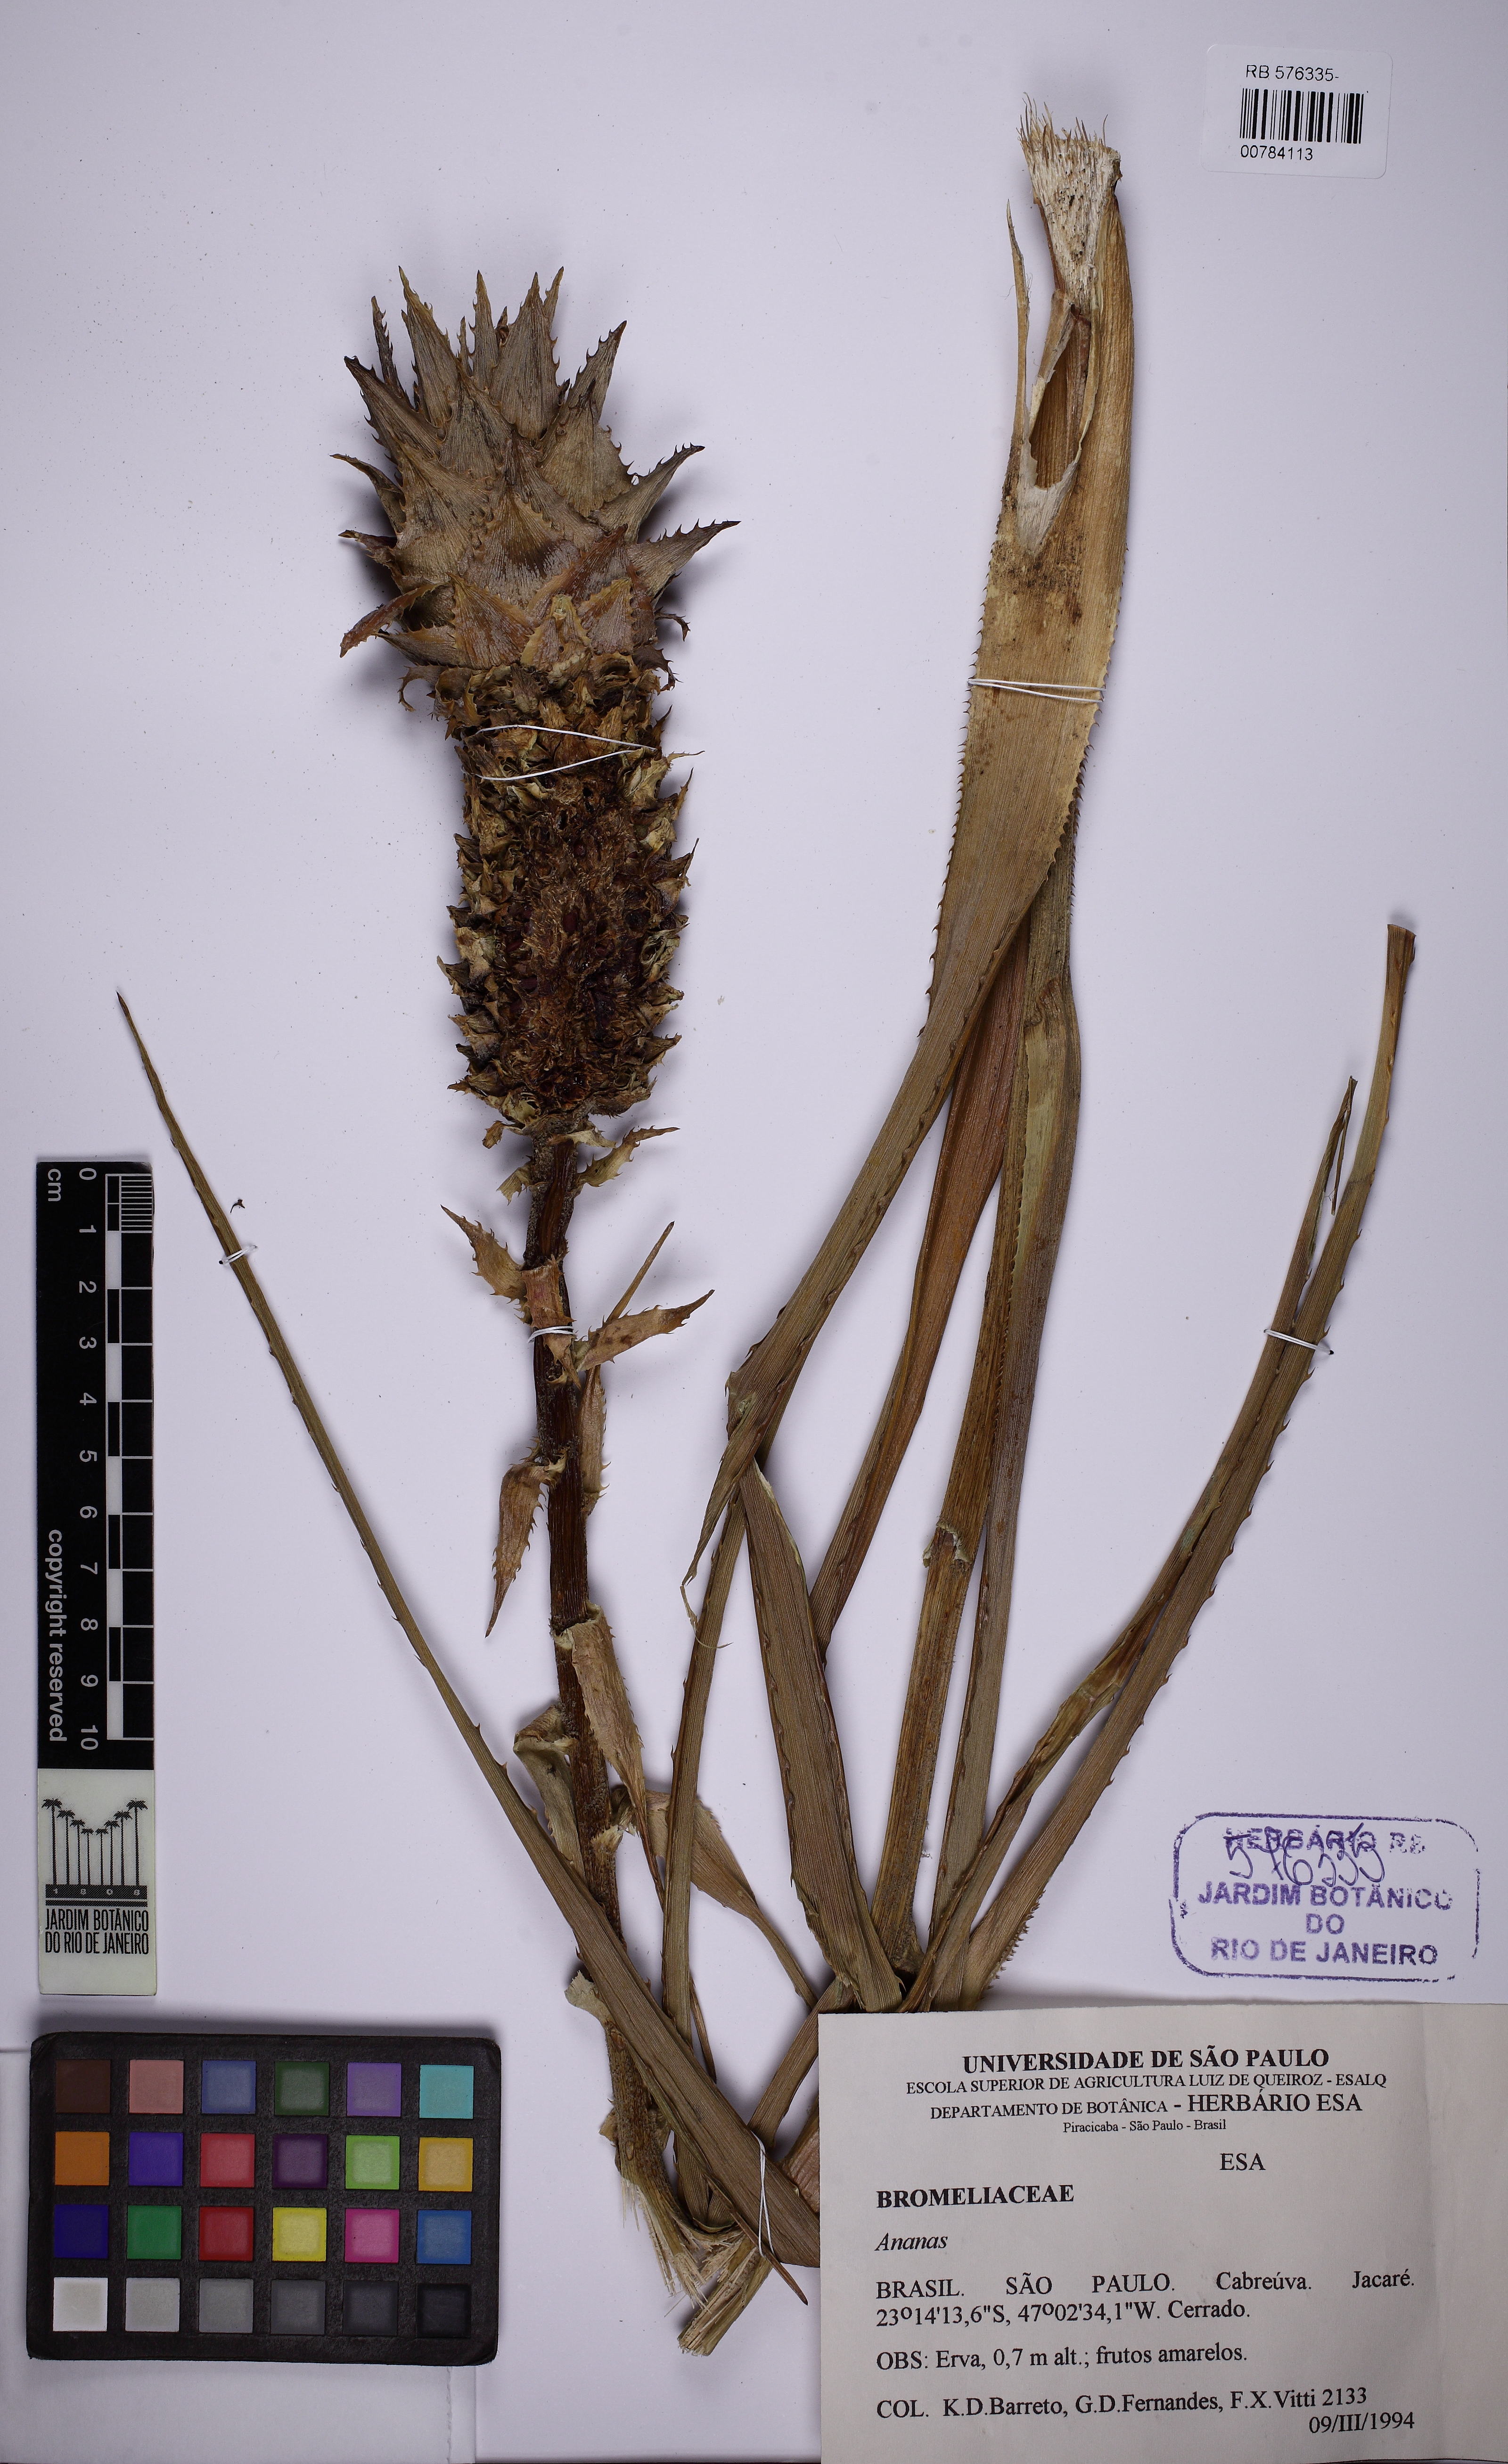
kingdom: Plantae
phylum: Tracheophyta
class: Liliopsida
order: Poales
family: Bromeliaceae
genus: Ananas
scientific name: Ananas
